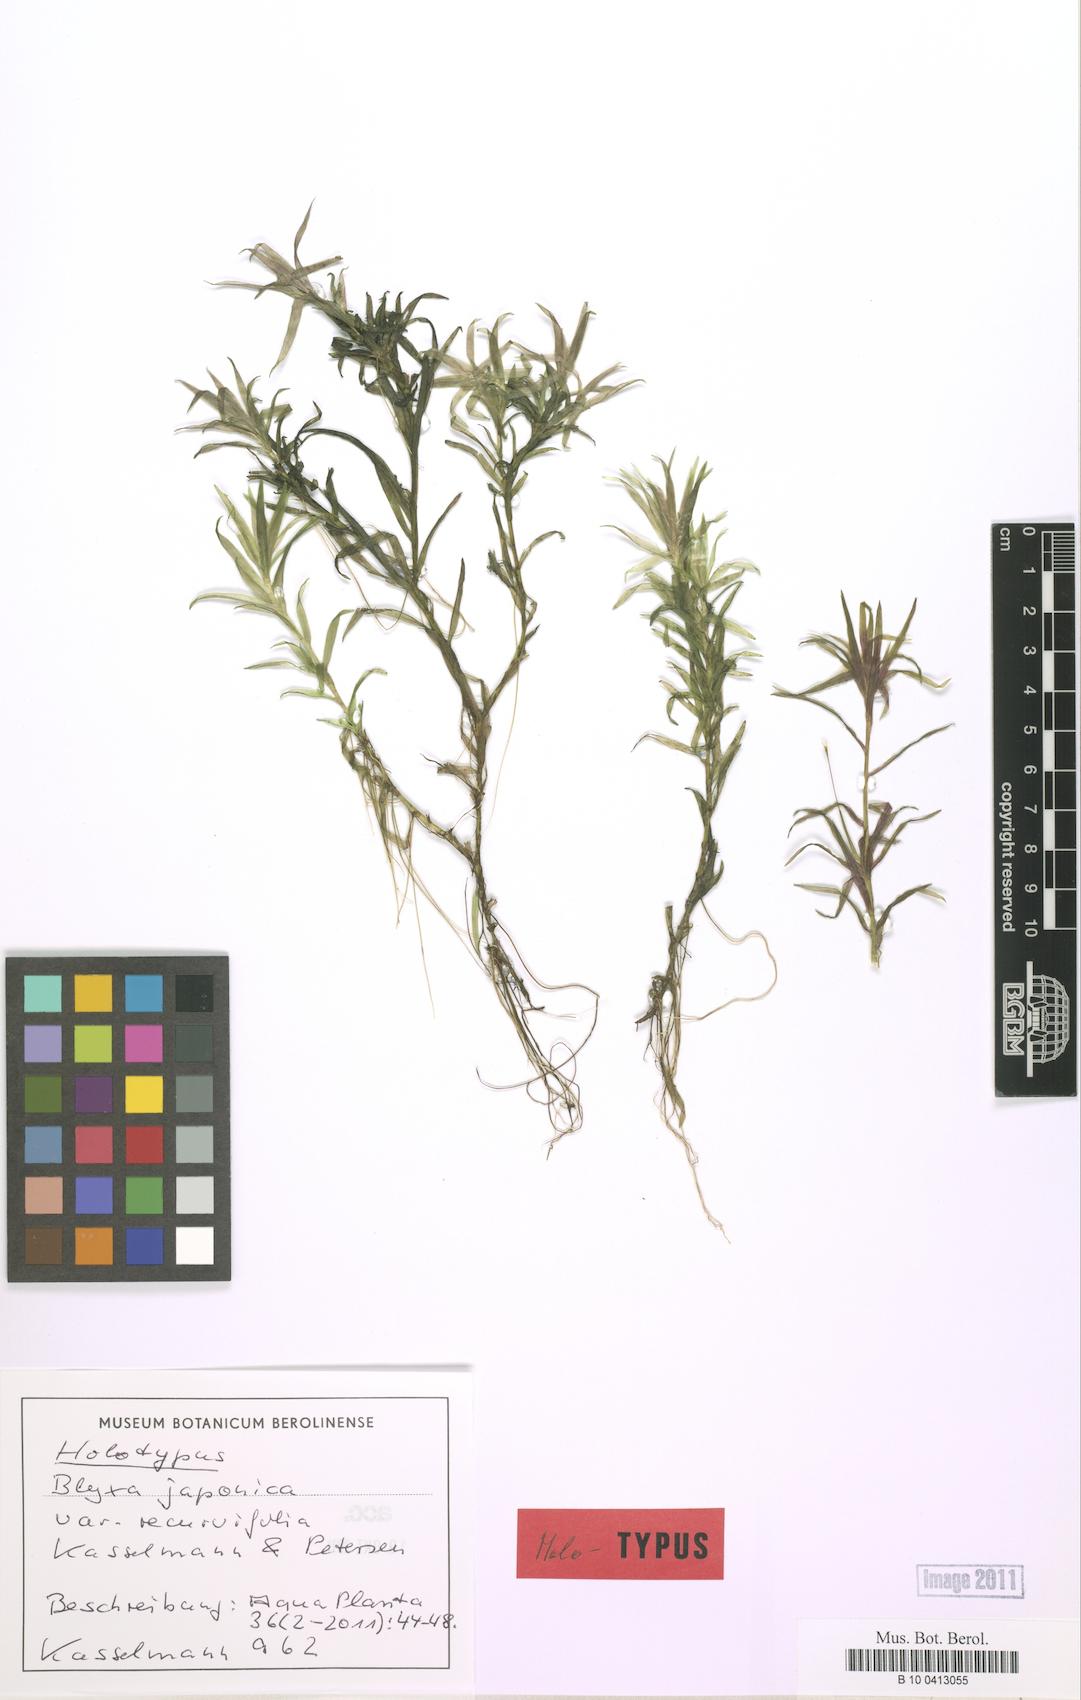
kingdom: Plantae
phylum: Tracheophyta
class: Liliopsida
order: Alismatales
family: Hydrocharitaceae
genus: Blyxa
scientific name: Blyxa japonica
